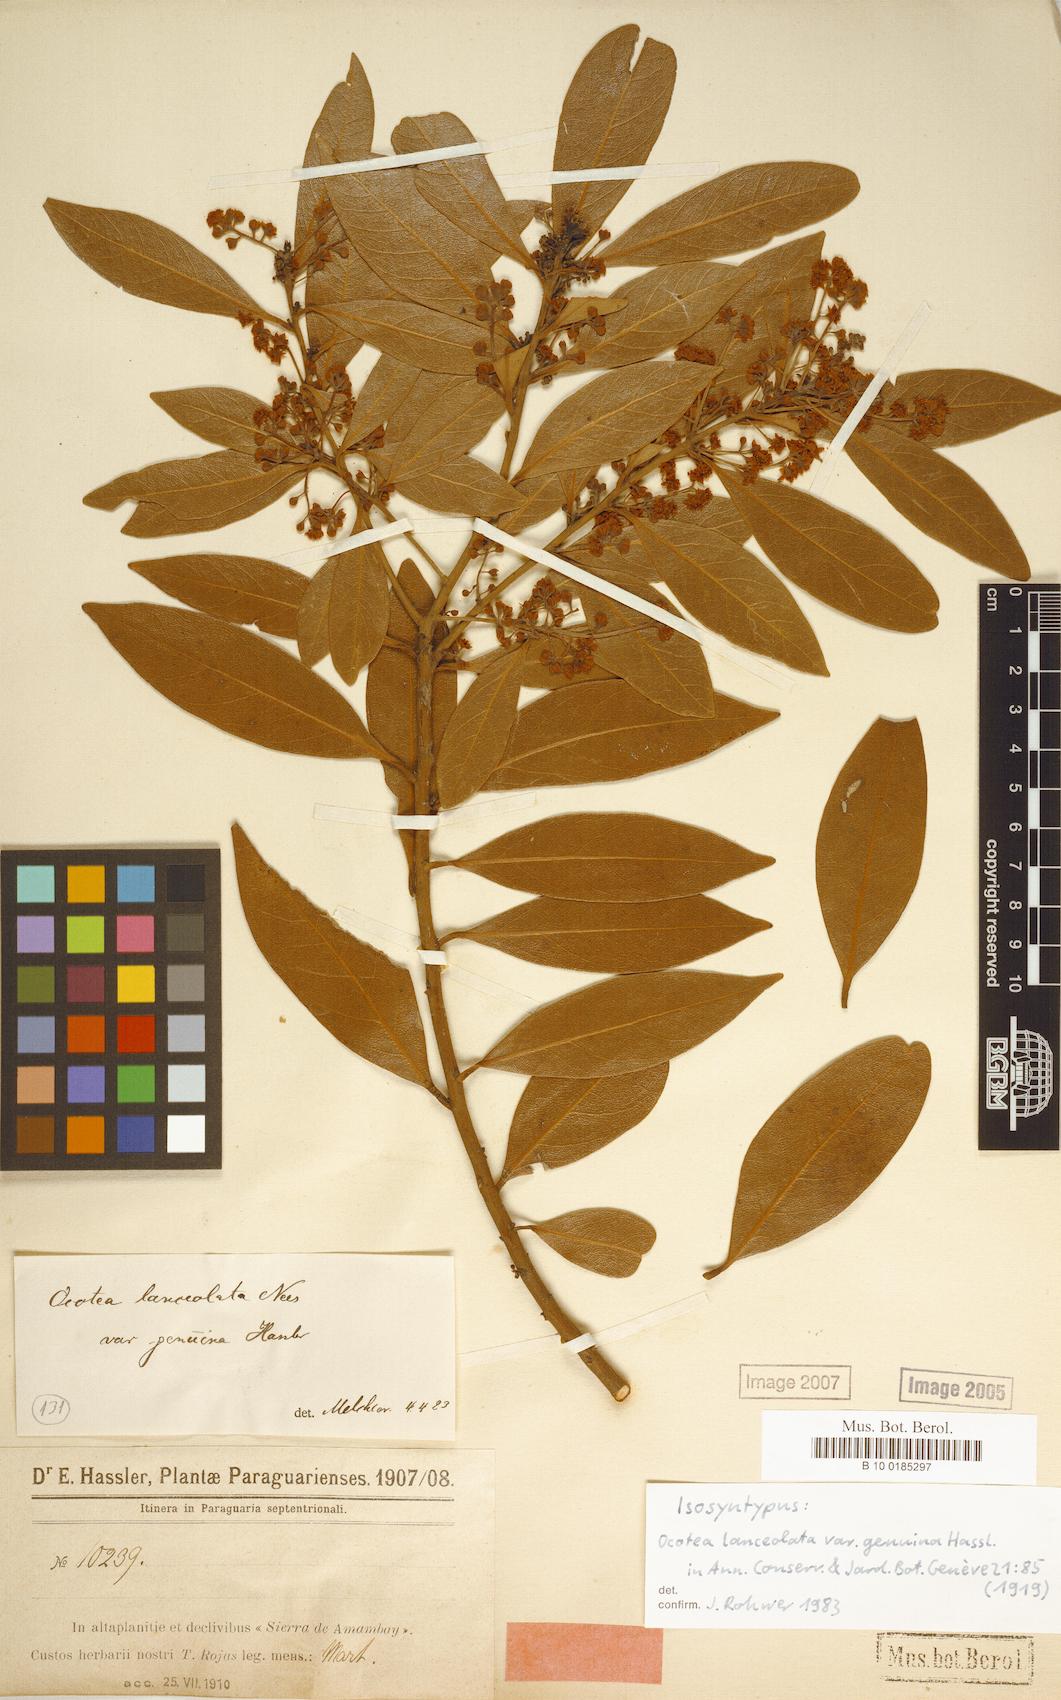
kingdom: Plantae
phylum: Tracheophyta
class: Magnoliopsida
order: Laurales
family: Lauraceae
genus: Ocotea
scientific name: Ocotea lancifolia
